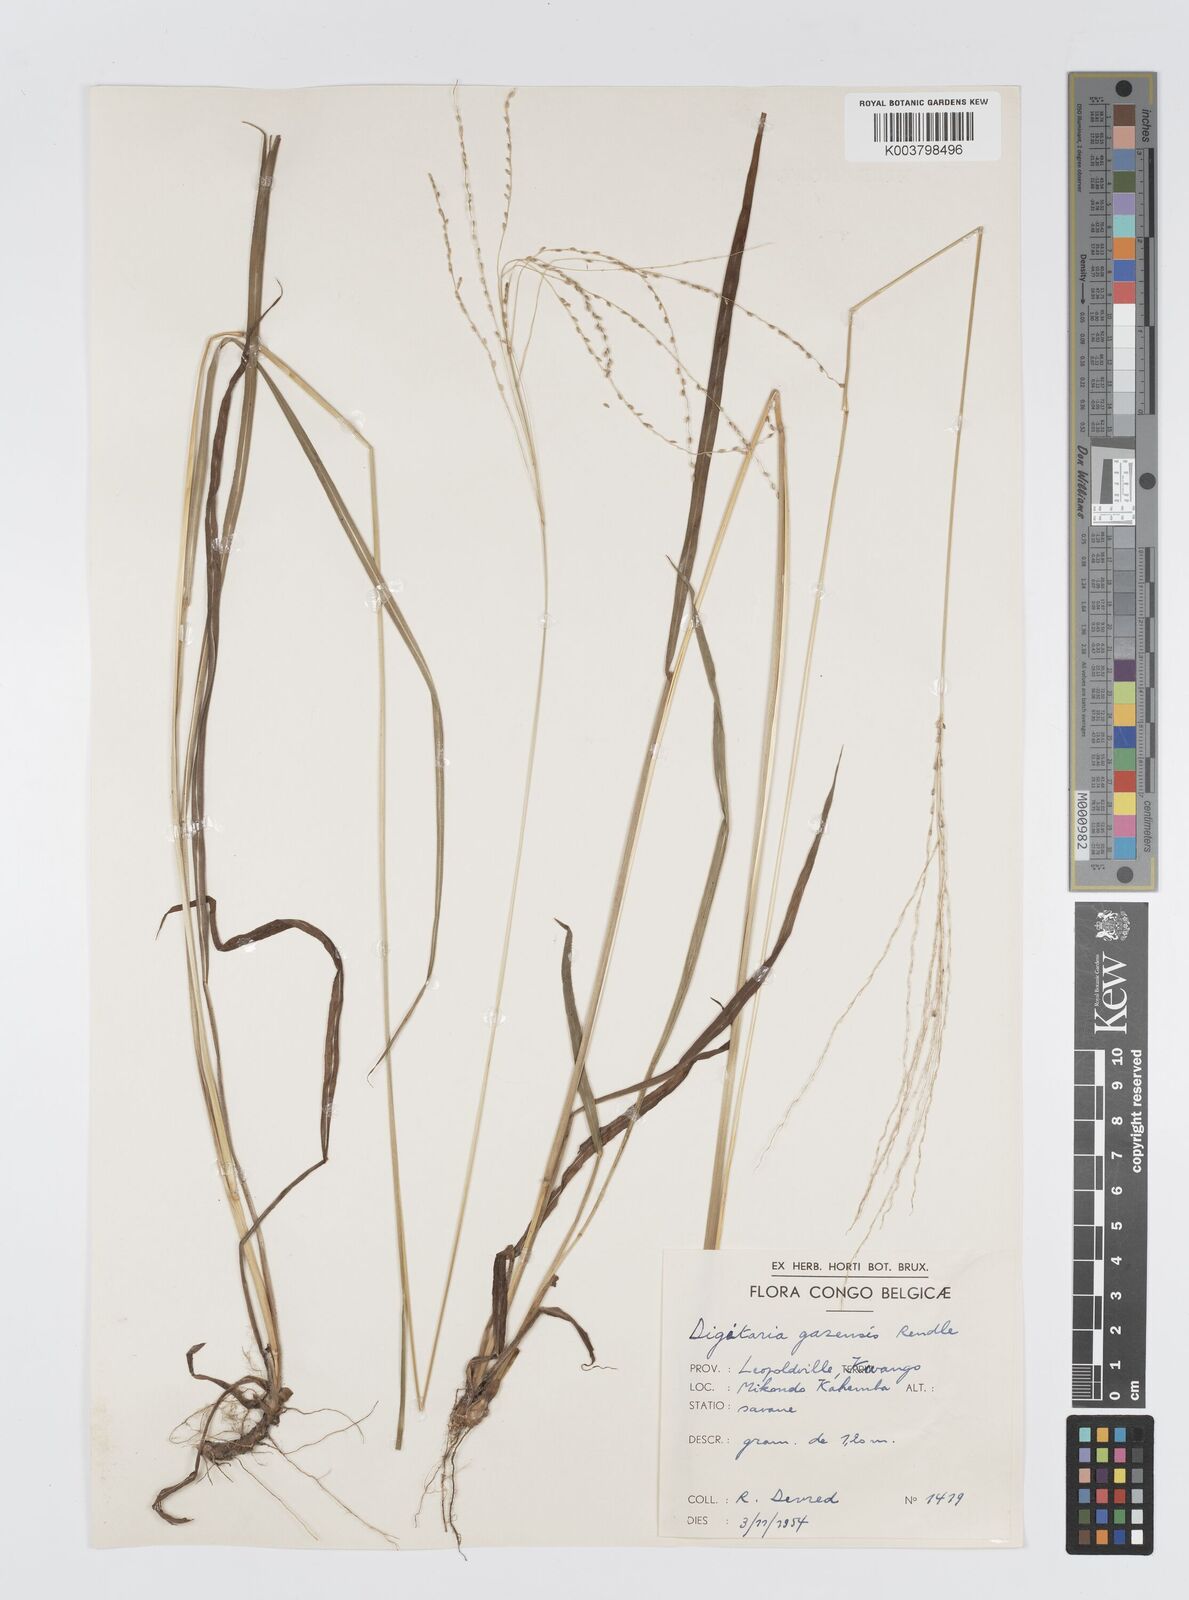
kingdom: Plantae
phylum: Tracheophyta
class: Liliopsida
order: Poales
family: Poaceae
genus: Digitaria
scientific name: Digitaria gazensis
